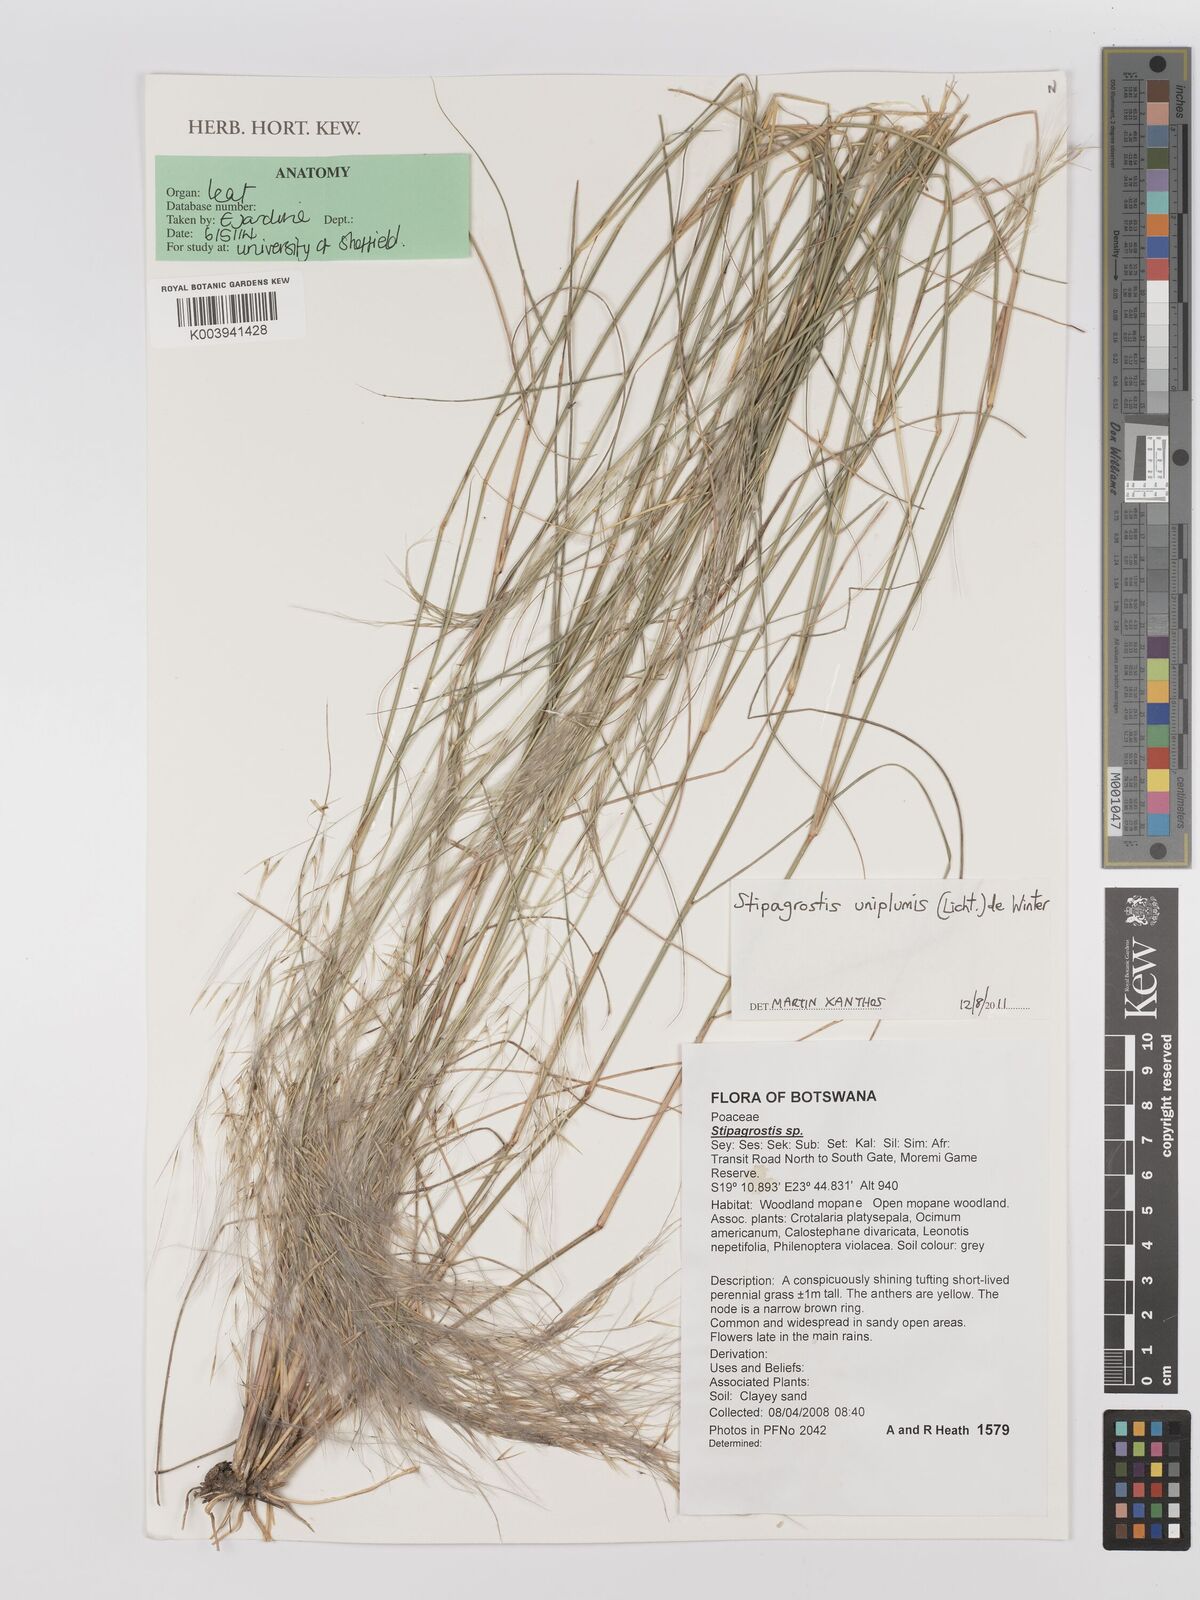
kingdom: Plantae
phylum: Tracheophyta
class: Liliopsida
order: Poales
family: Poaceae
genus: Stipagrostis
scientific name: Stipagrostis uniplumis
